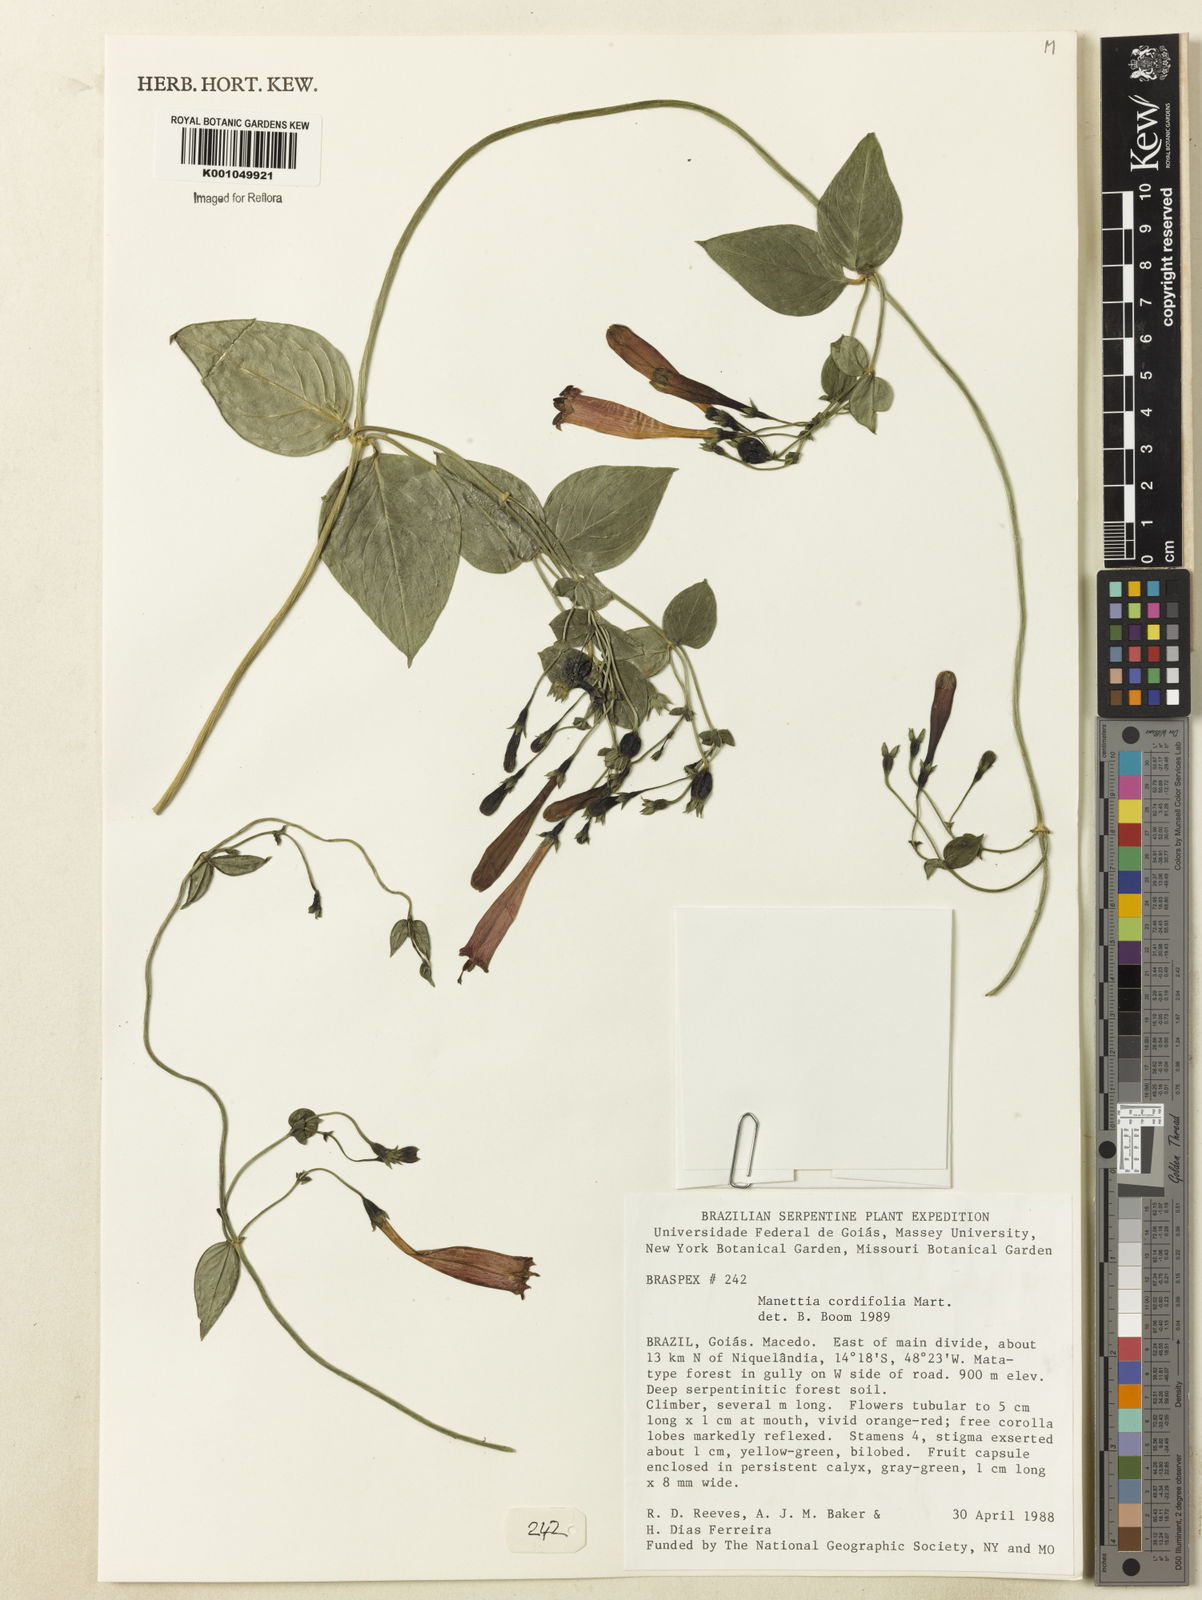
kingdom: Plantae
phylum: Tracheophyta
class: Magnoliopsida
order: Gentianales
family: Rubiaceae
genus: Manettia
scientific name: Manettia cordifolia
